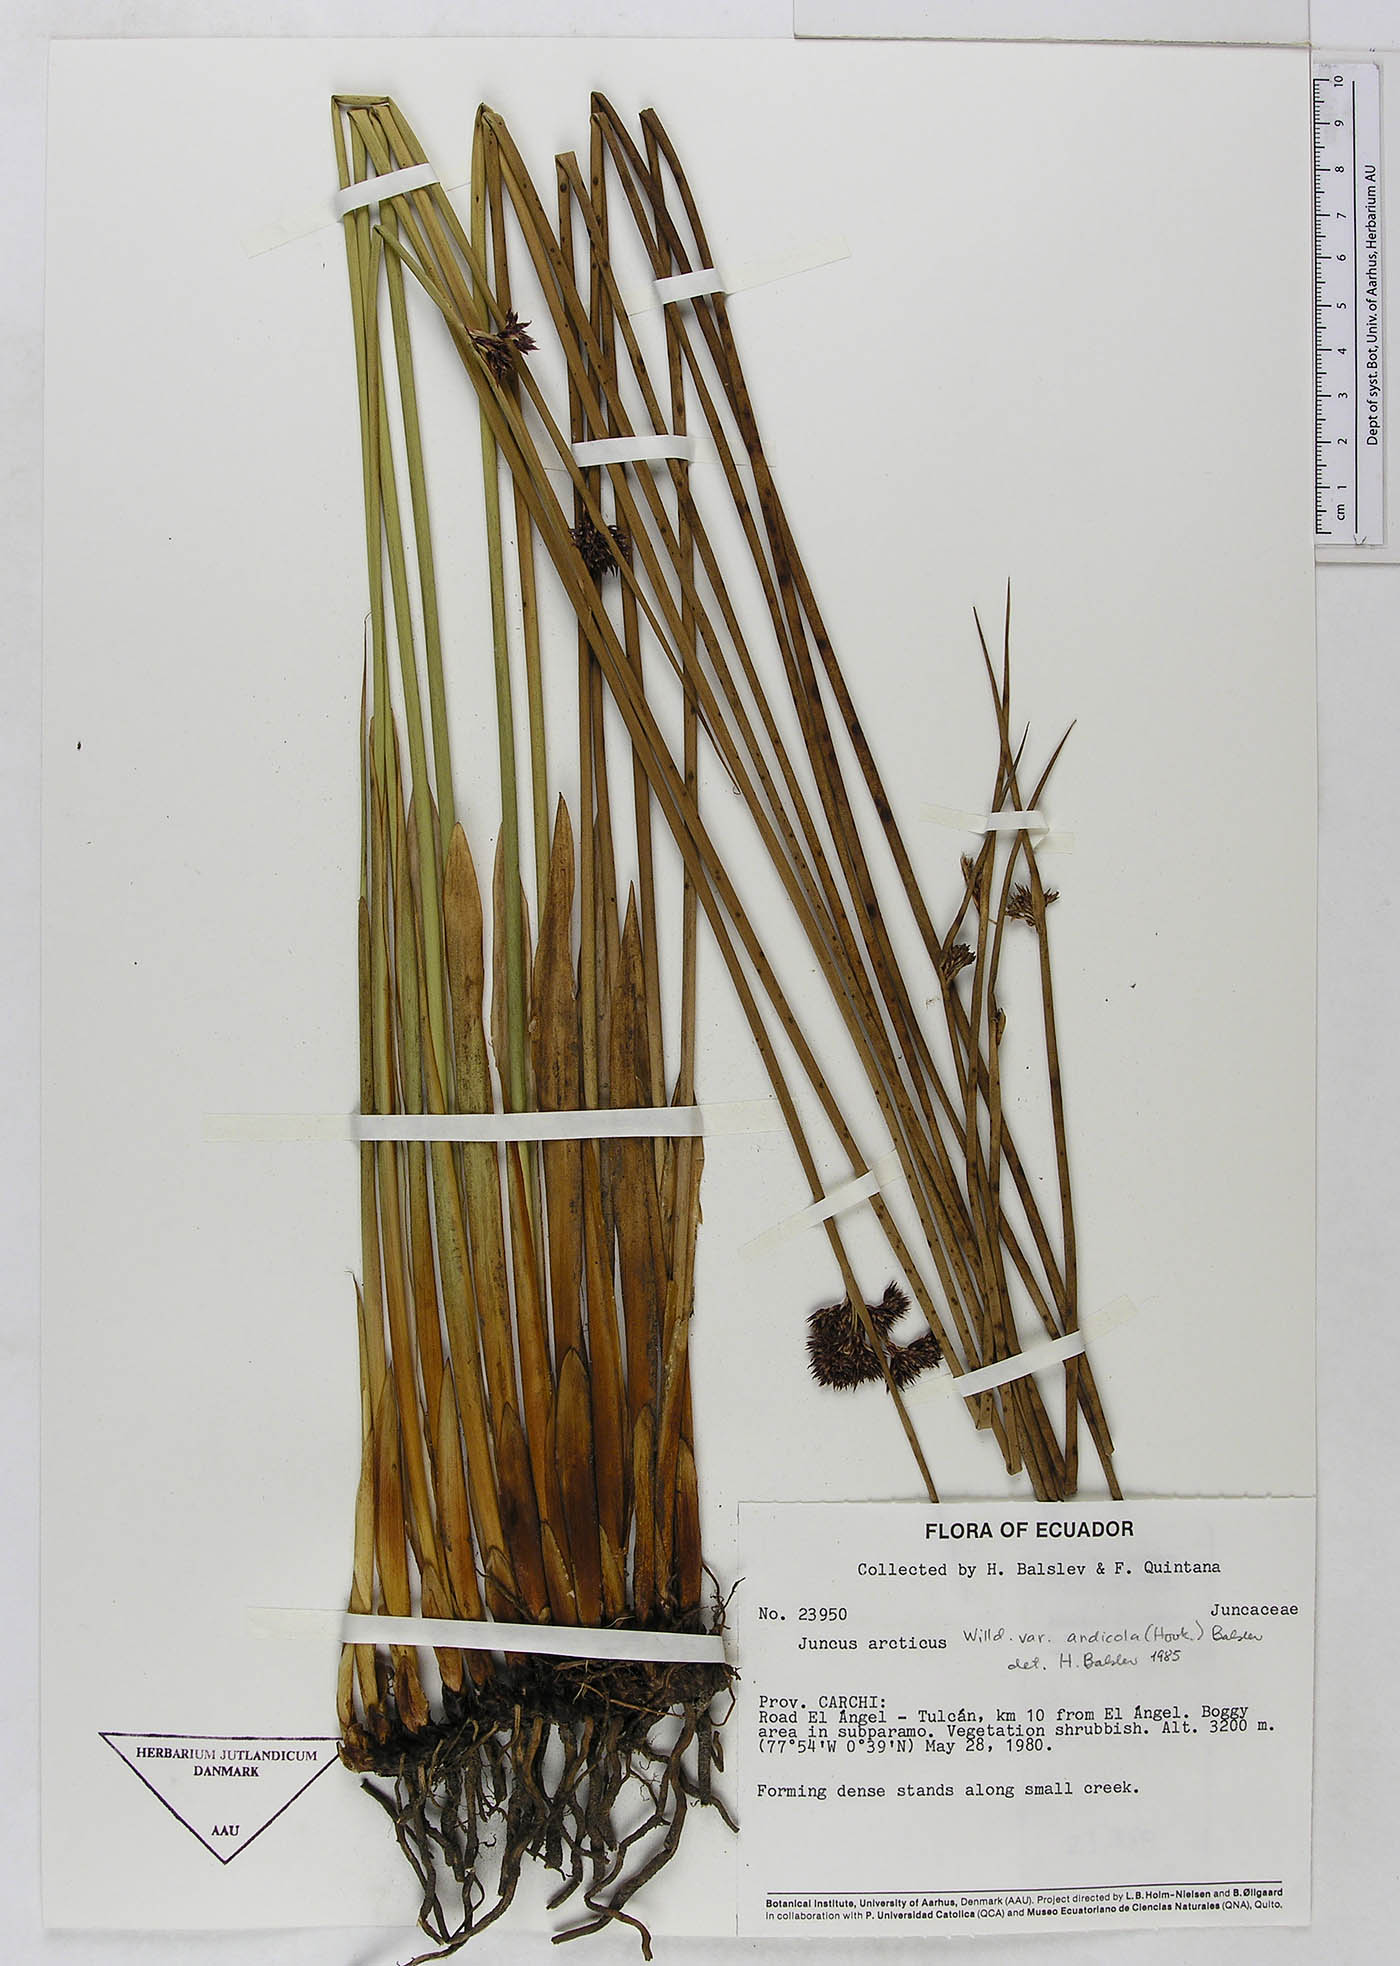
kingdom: Plantae
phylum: Tracheophyta
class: Liliopsida
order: Poales
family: Juncaceae
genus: Juncus
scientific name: Juncus balticus
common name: Baltic rush
